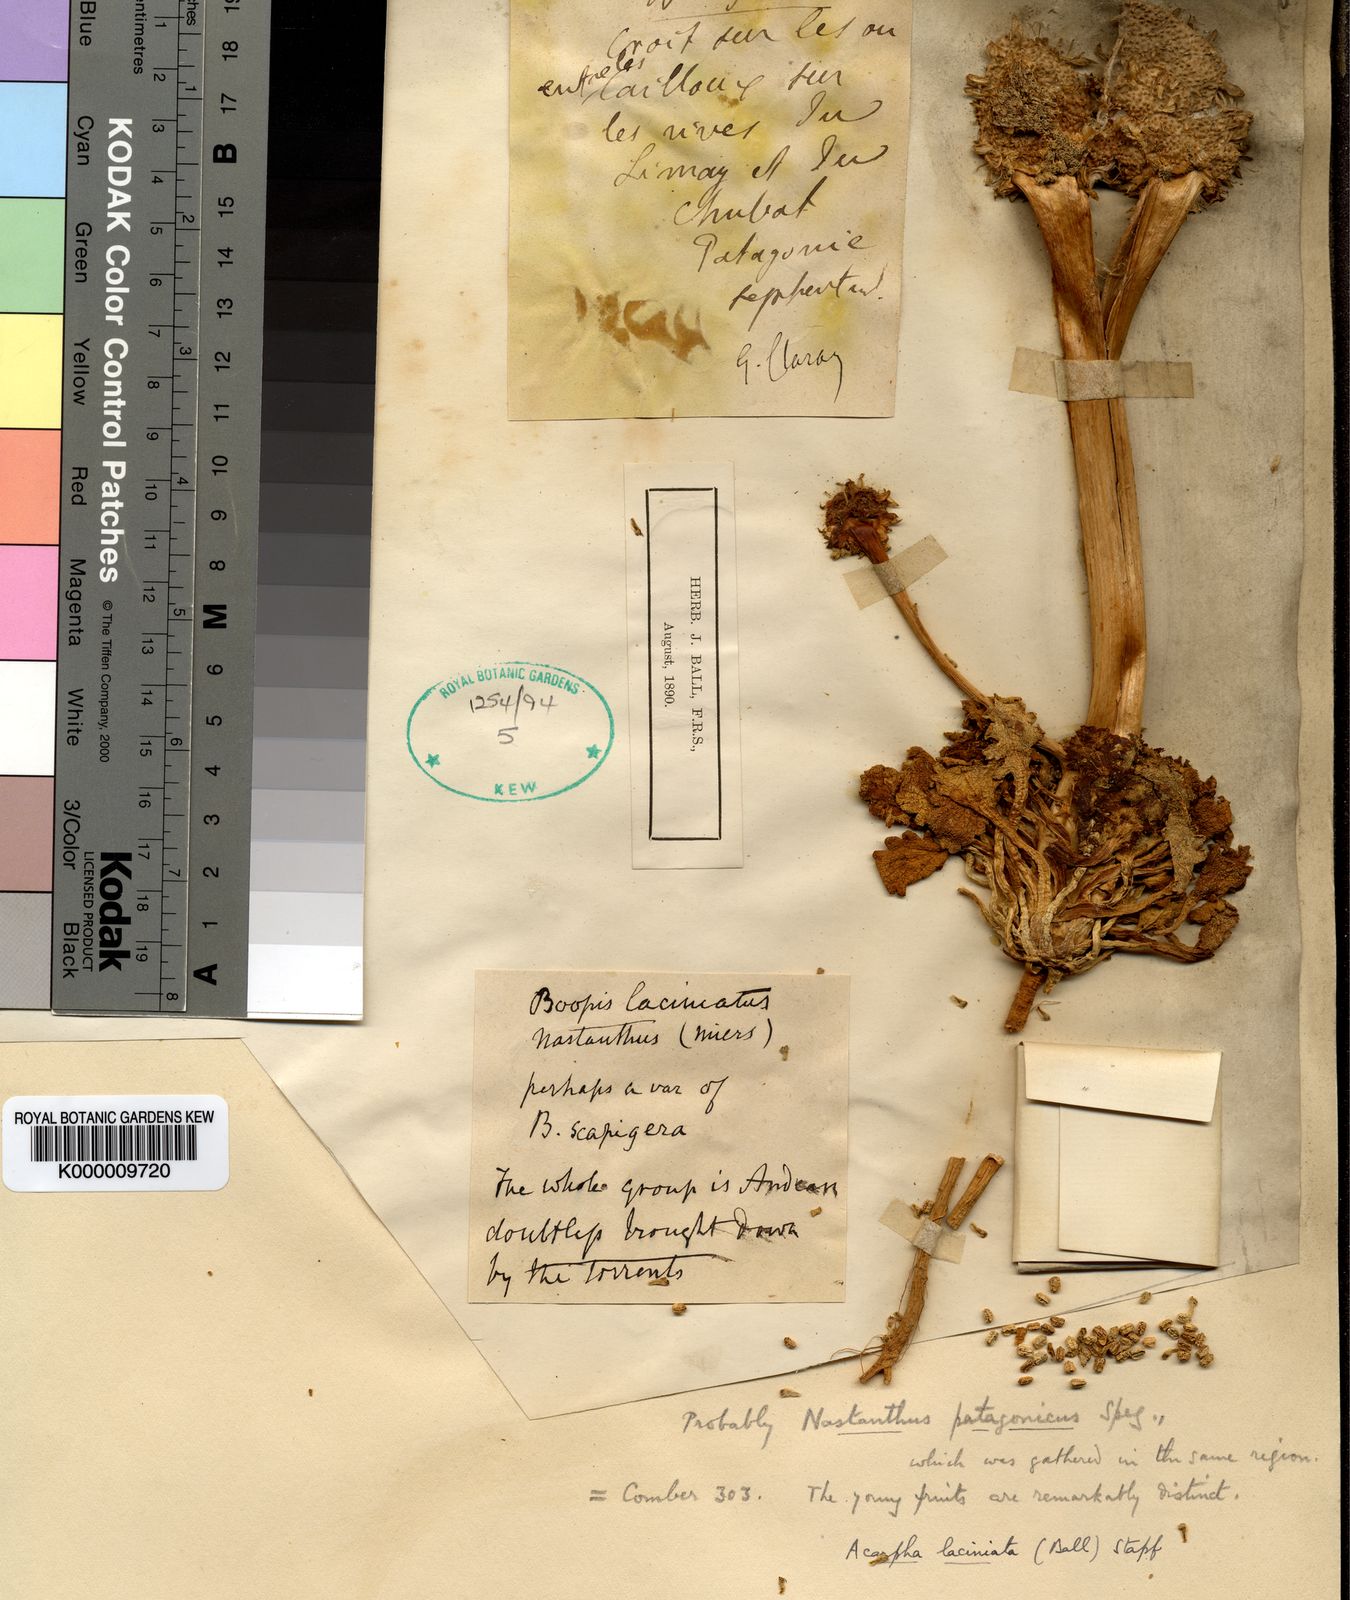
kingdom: Plantae
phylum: Tracheophyta
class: Magnoliopsida
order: Asterales
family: Calyceraceae
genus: Gamocarpha
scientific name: Gamocarpha macrocephala
